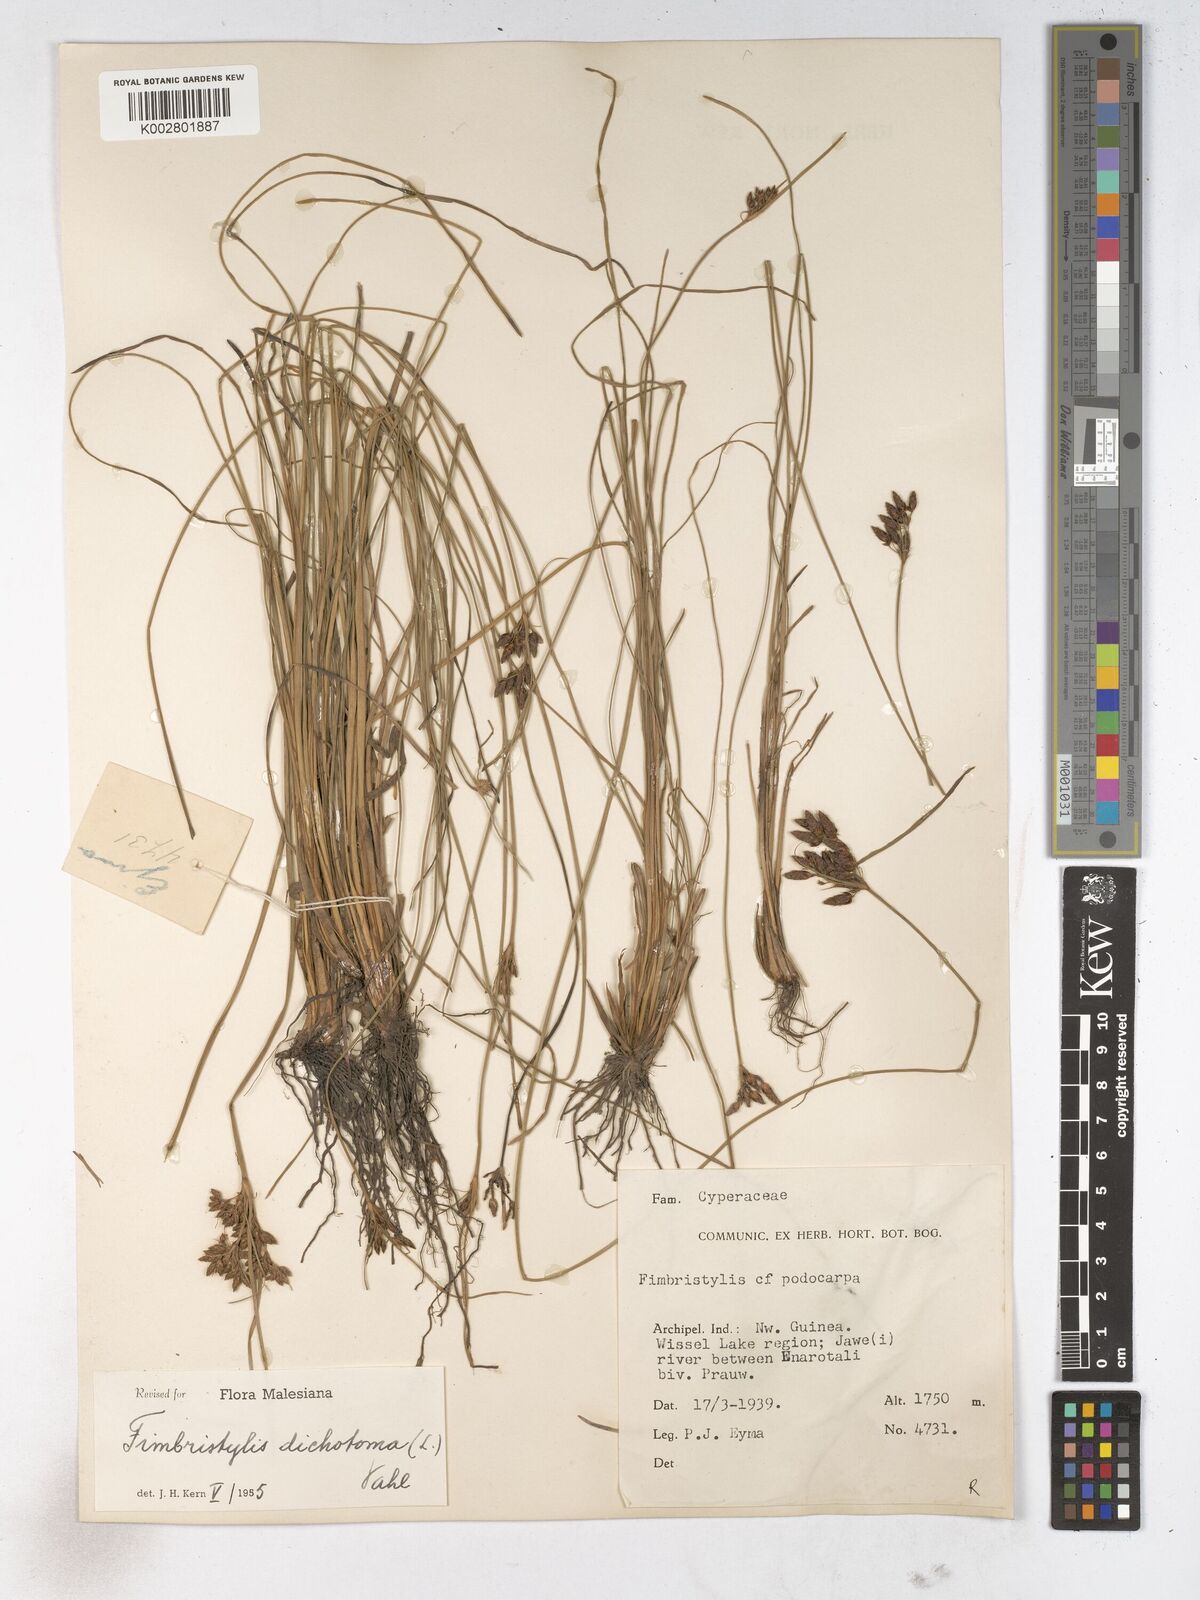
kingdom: Plantae
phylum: Tracheophyta
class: Liliopsida
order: Poales
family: Cyperaceae
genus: Fimbristylis
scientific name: Fimbristylis dichotoma
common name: Forked fimbry
